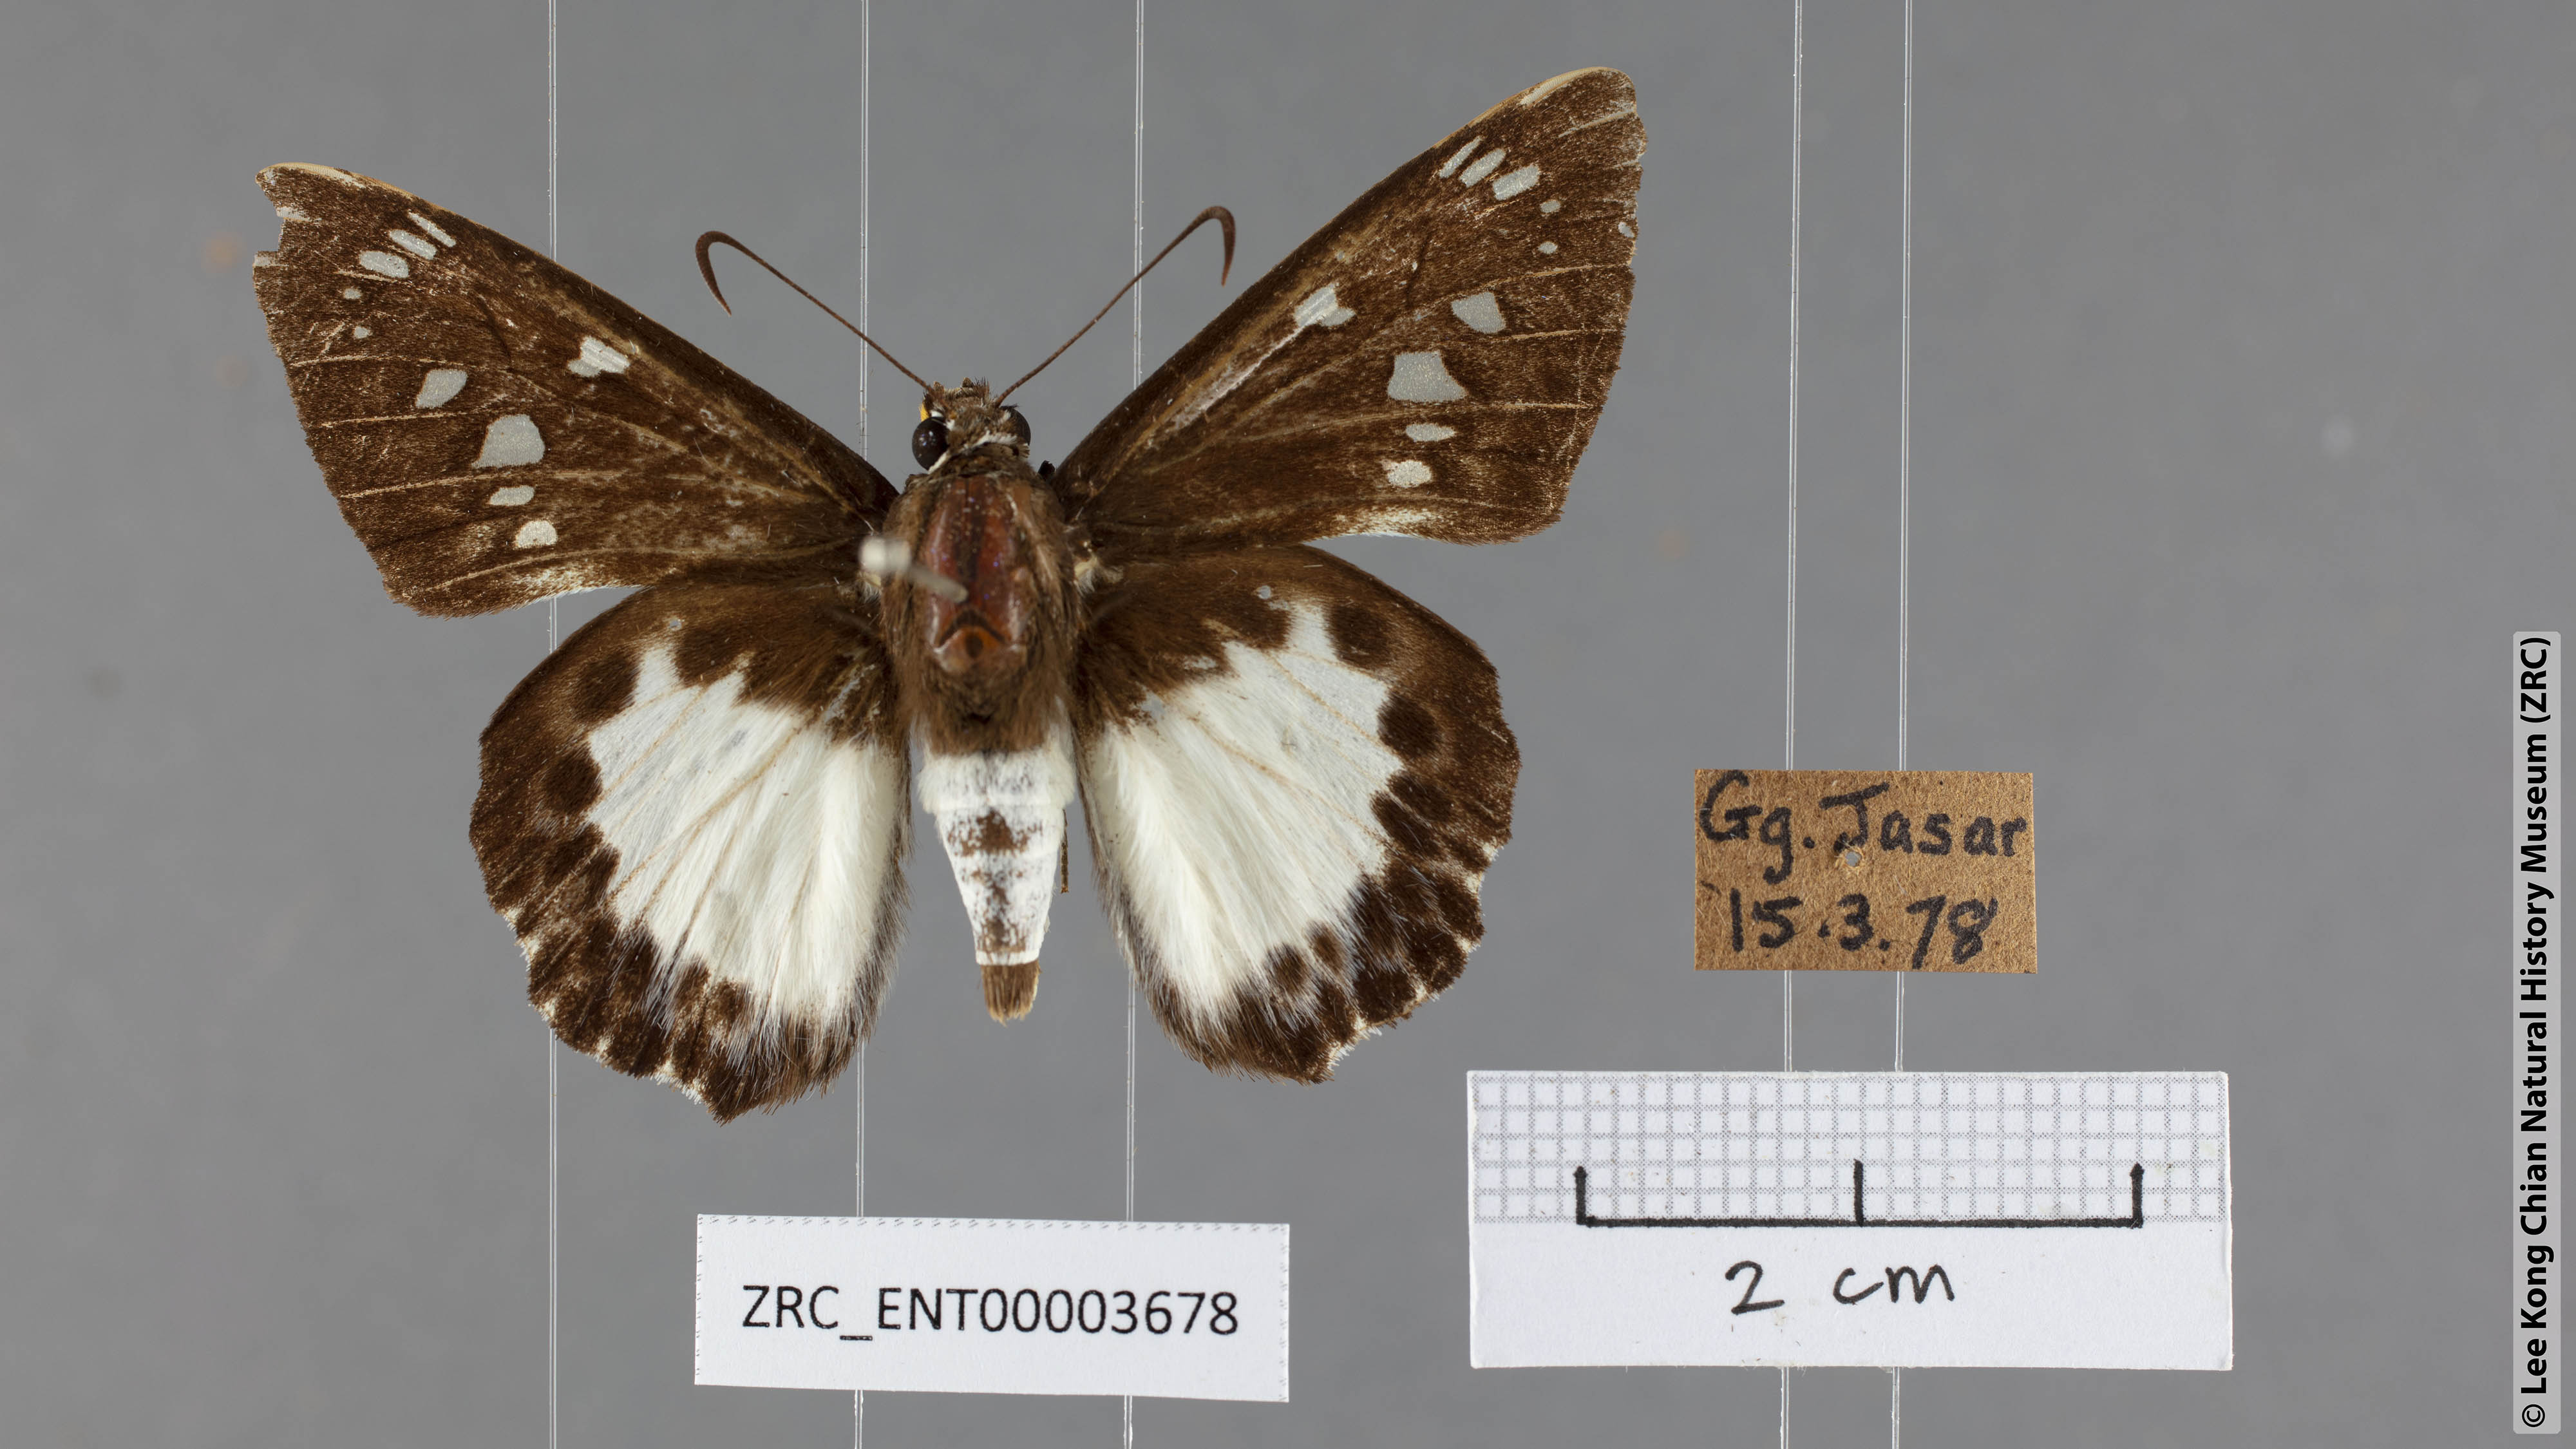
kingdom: Animalia
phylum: Arthropoda
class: Insecta
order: Lepidoptera
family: Hesperiidae
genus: Satarupa
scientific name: Satarupa gopala
